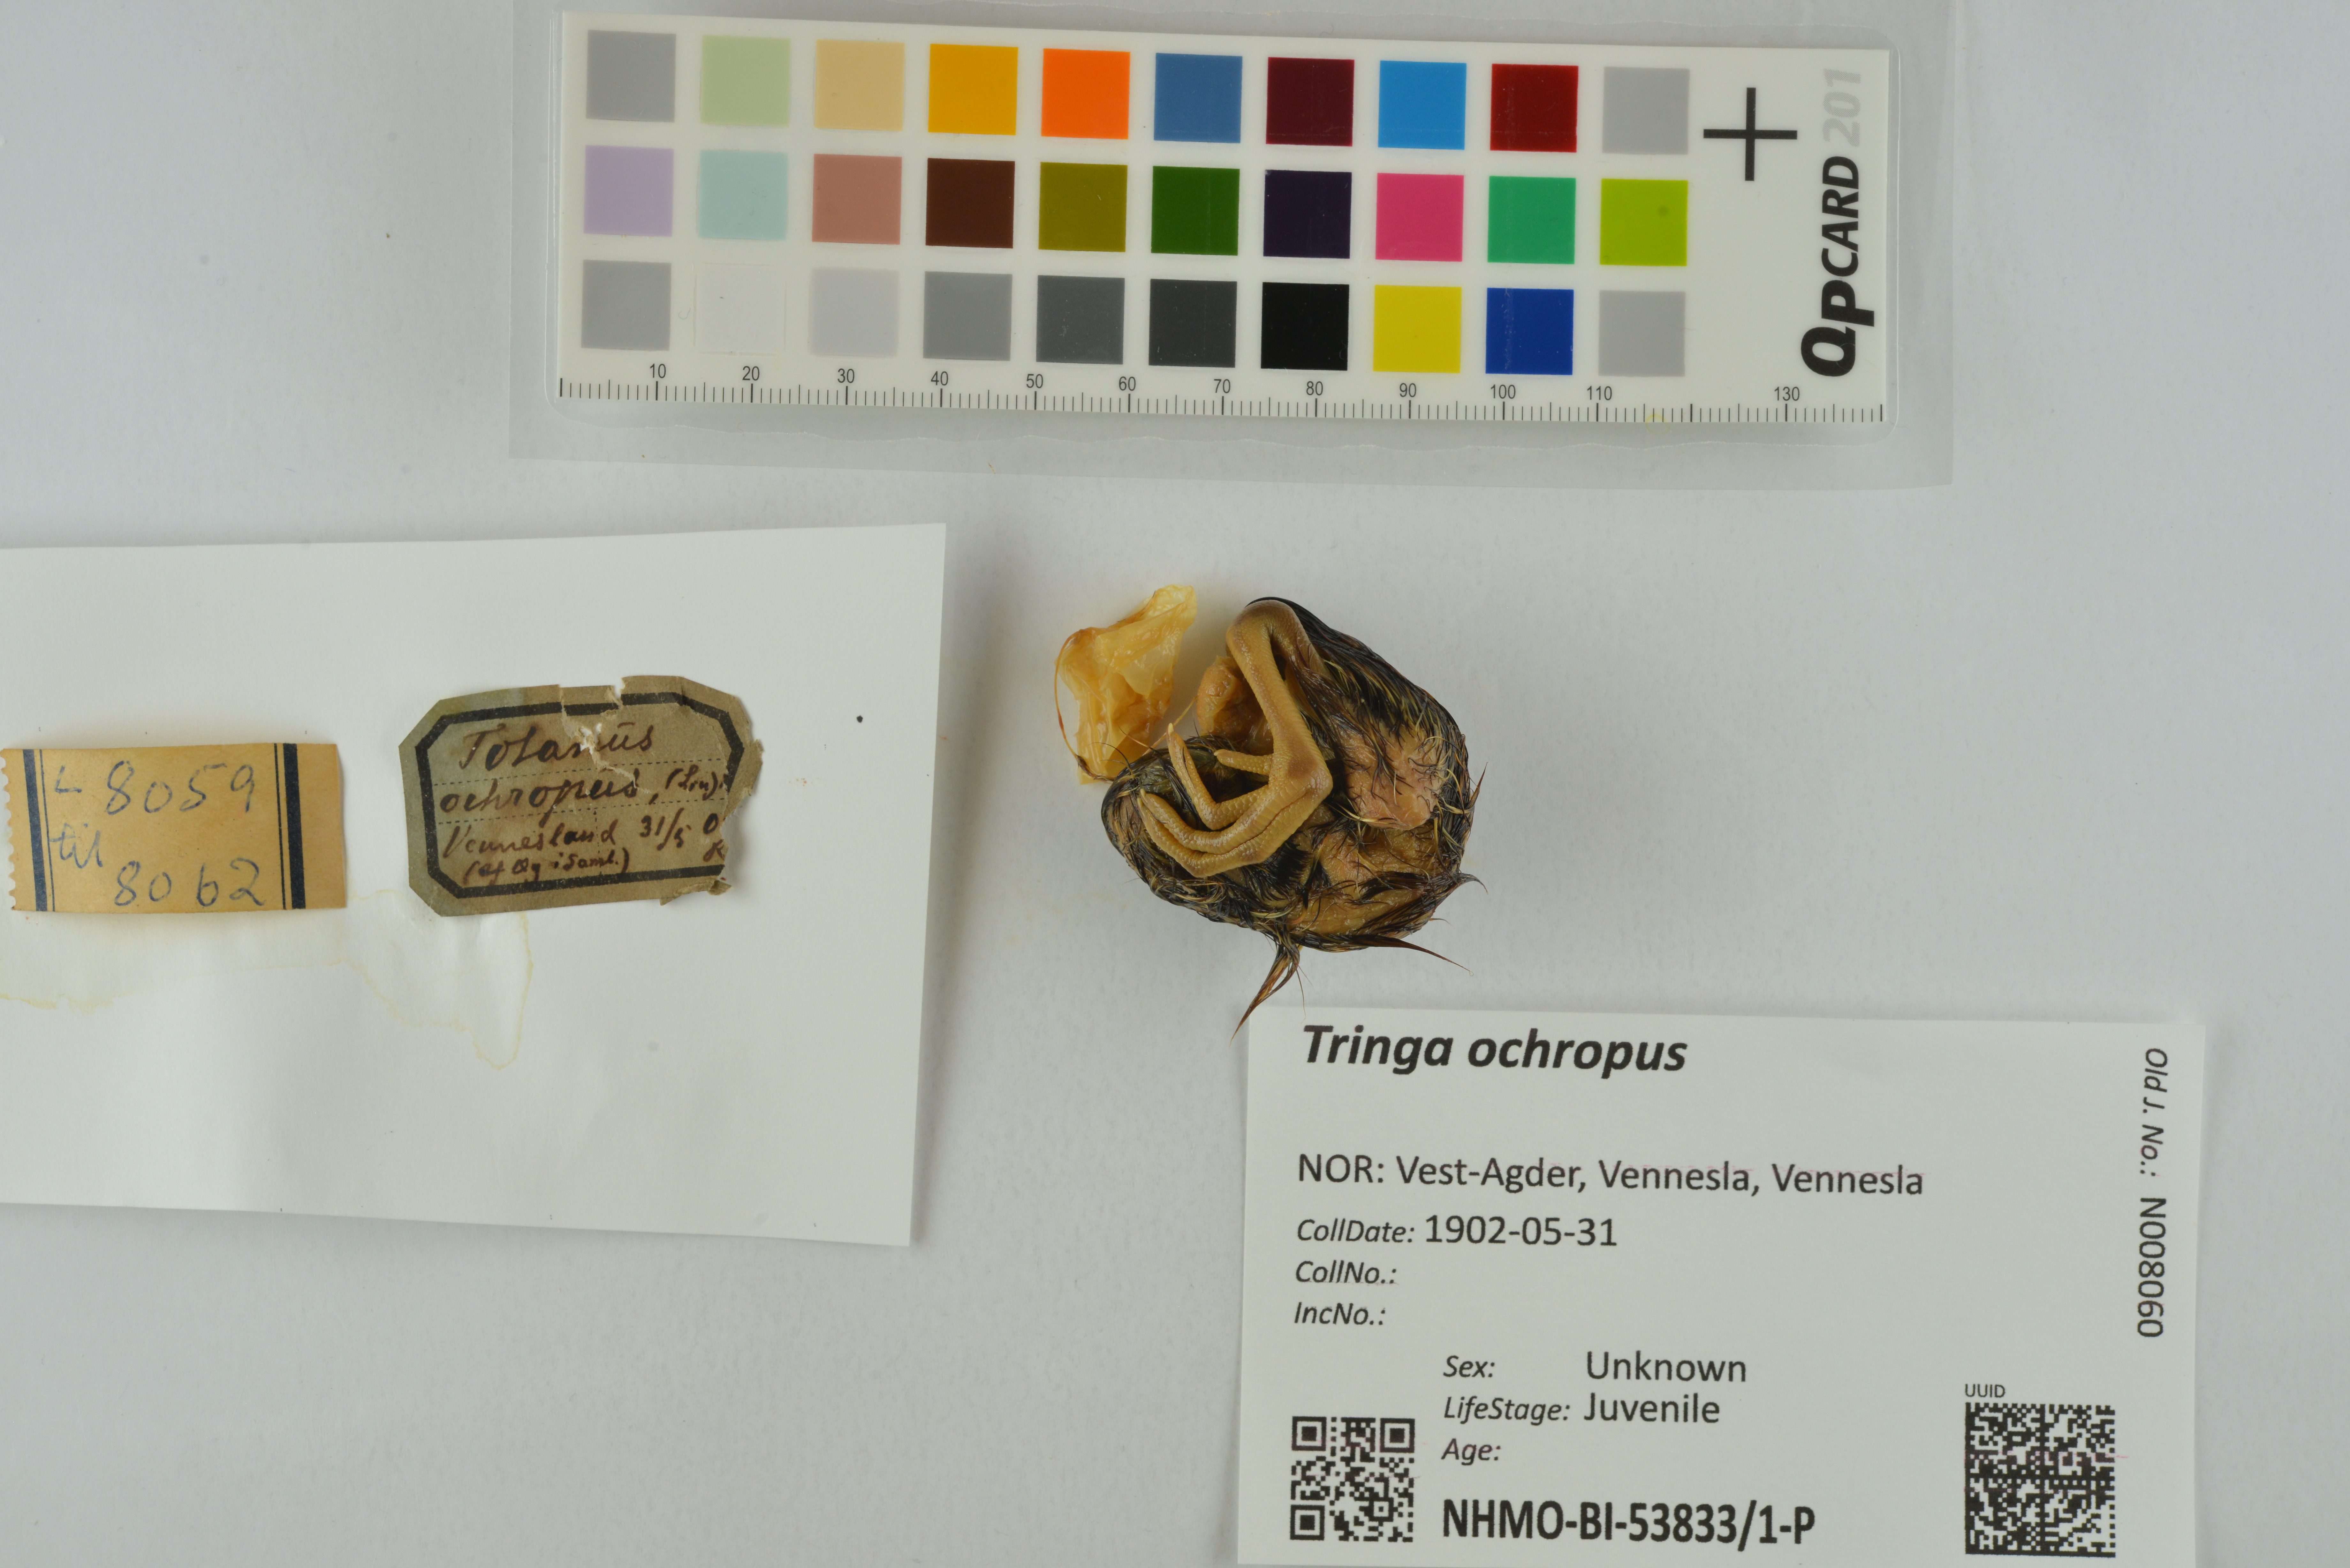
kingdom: Animalia
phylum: Chordata
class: Aves
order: Charadriiformes
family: Scolopacidae
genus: Tringa
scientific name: Tringa ochropus
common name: Green sandpiper
